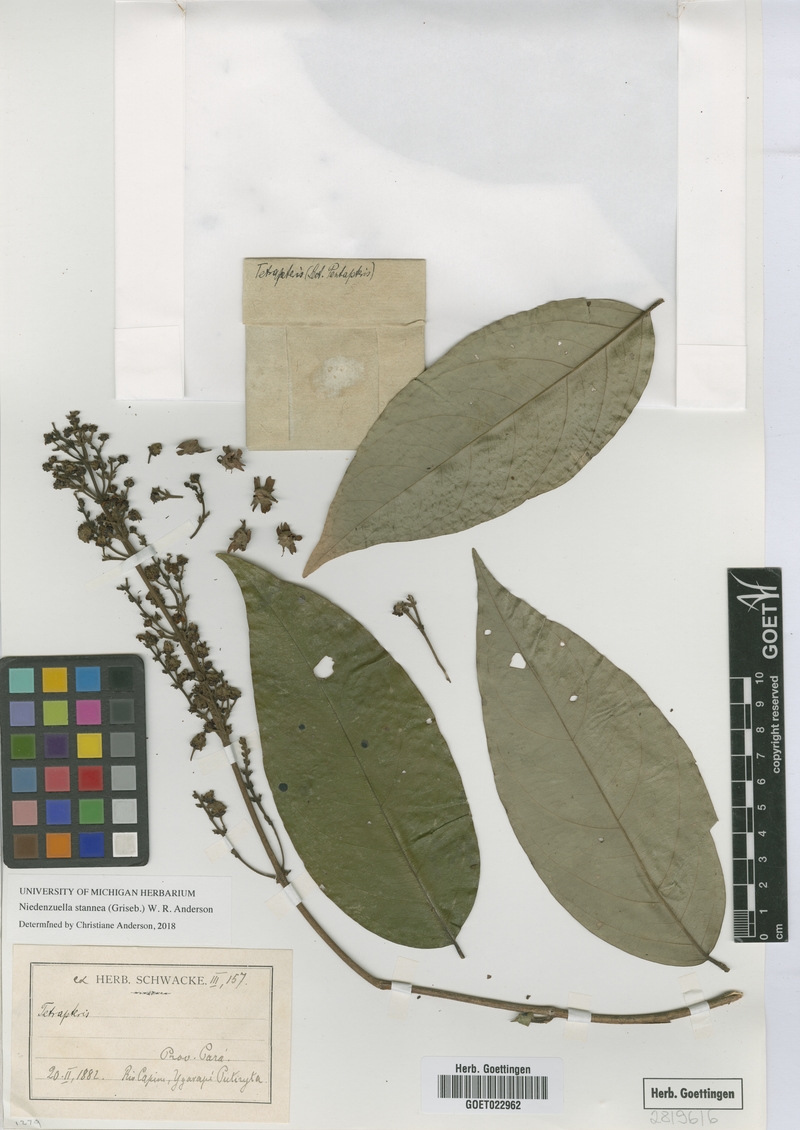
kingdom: Plantae
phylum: Tracheophyta
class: Magnoliopsida
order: Malpighiales
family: Malpighiaceae
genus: Niedenzuella
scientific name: Niedenzuella stannea
